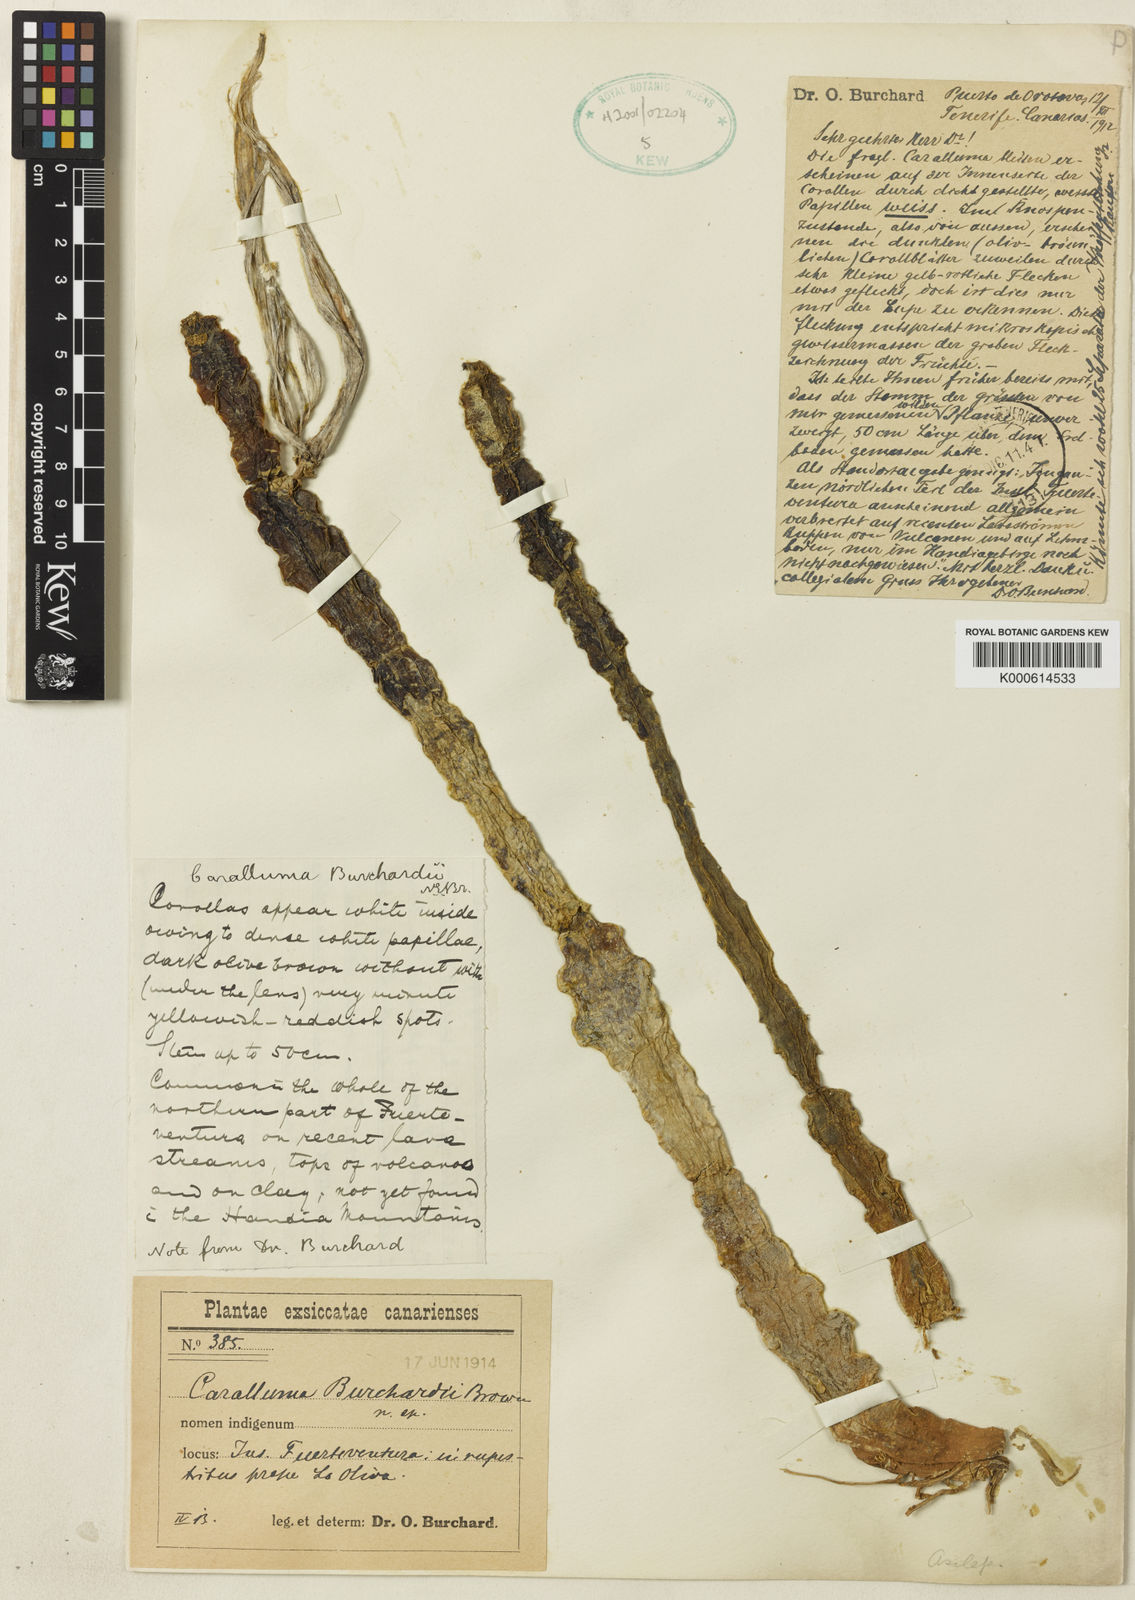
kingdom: Plantae
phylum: Tracheophyta
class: Magnoliopsida
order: Gentianales
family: Apocynaceae
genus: Ceropegia
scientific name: Ceropegia burchardii
